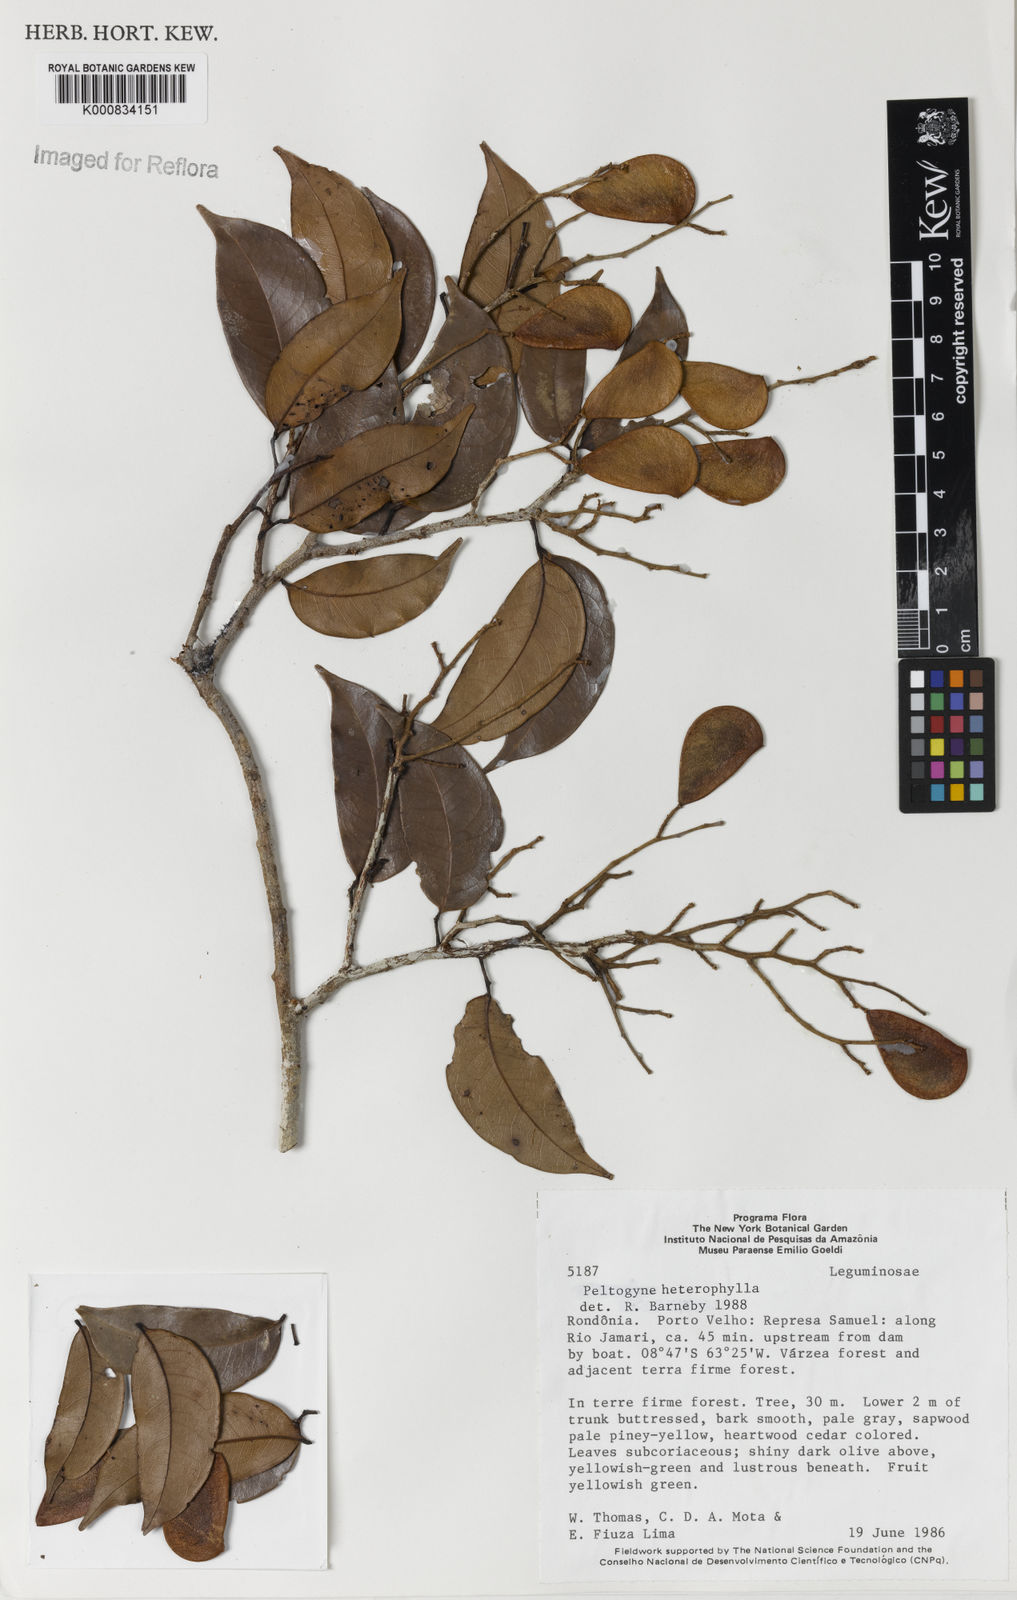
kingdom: Plantae
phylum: Tracheophyta
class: Magnoliopsida
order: Fabales
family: Fabaceae
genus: Peltogyne
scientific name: Peltogyne heterophylla
